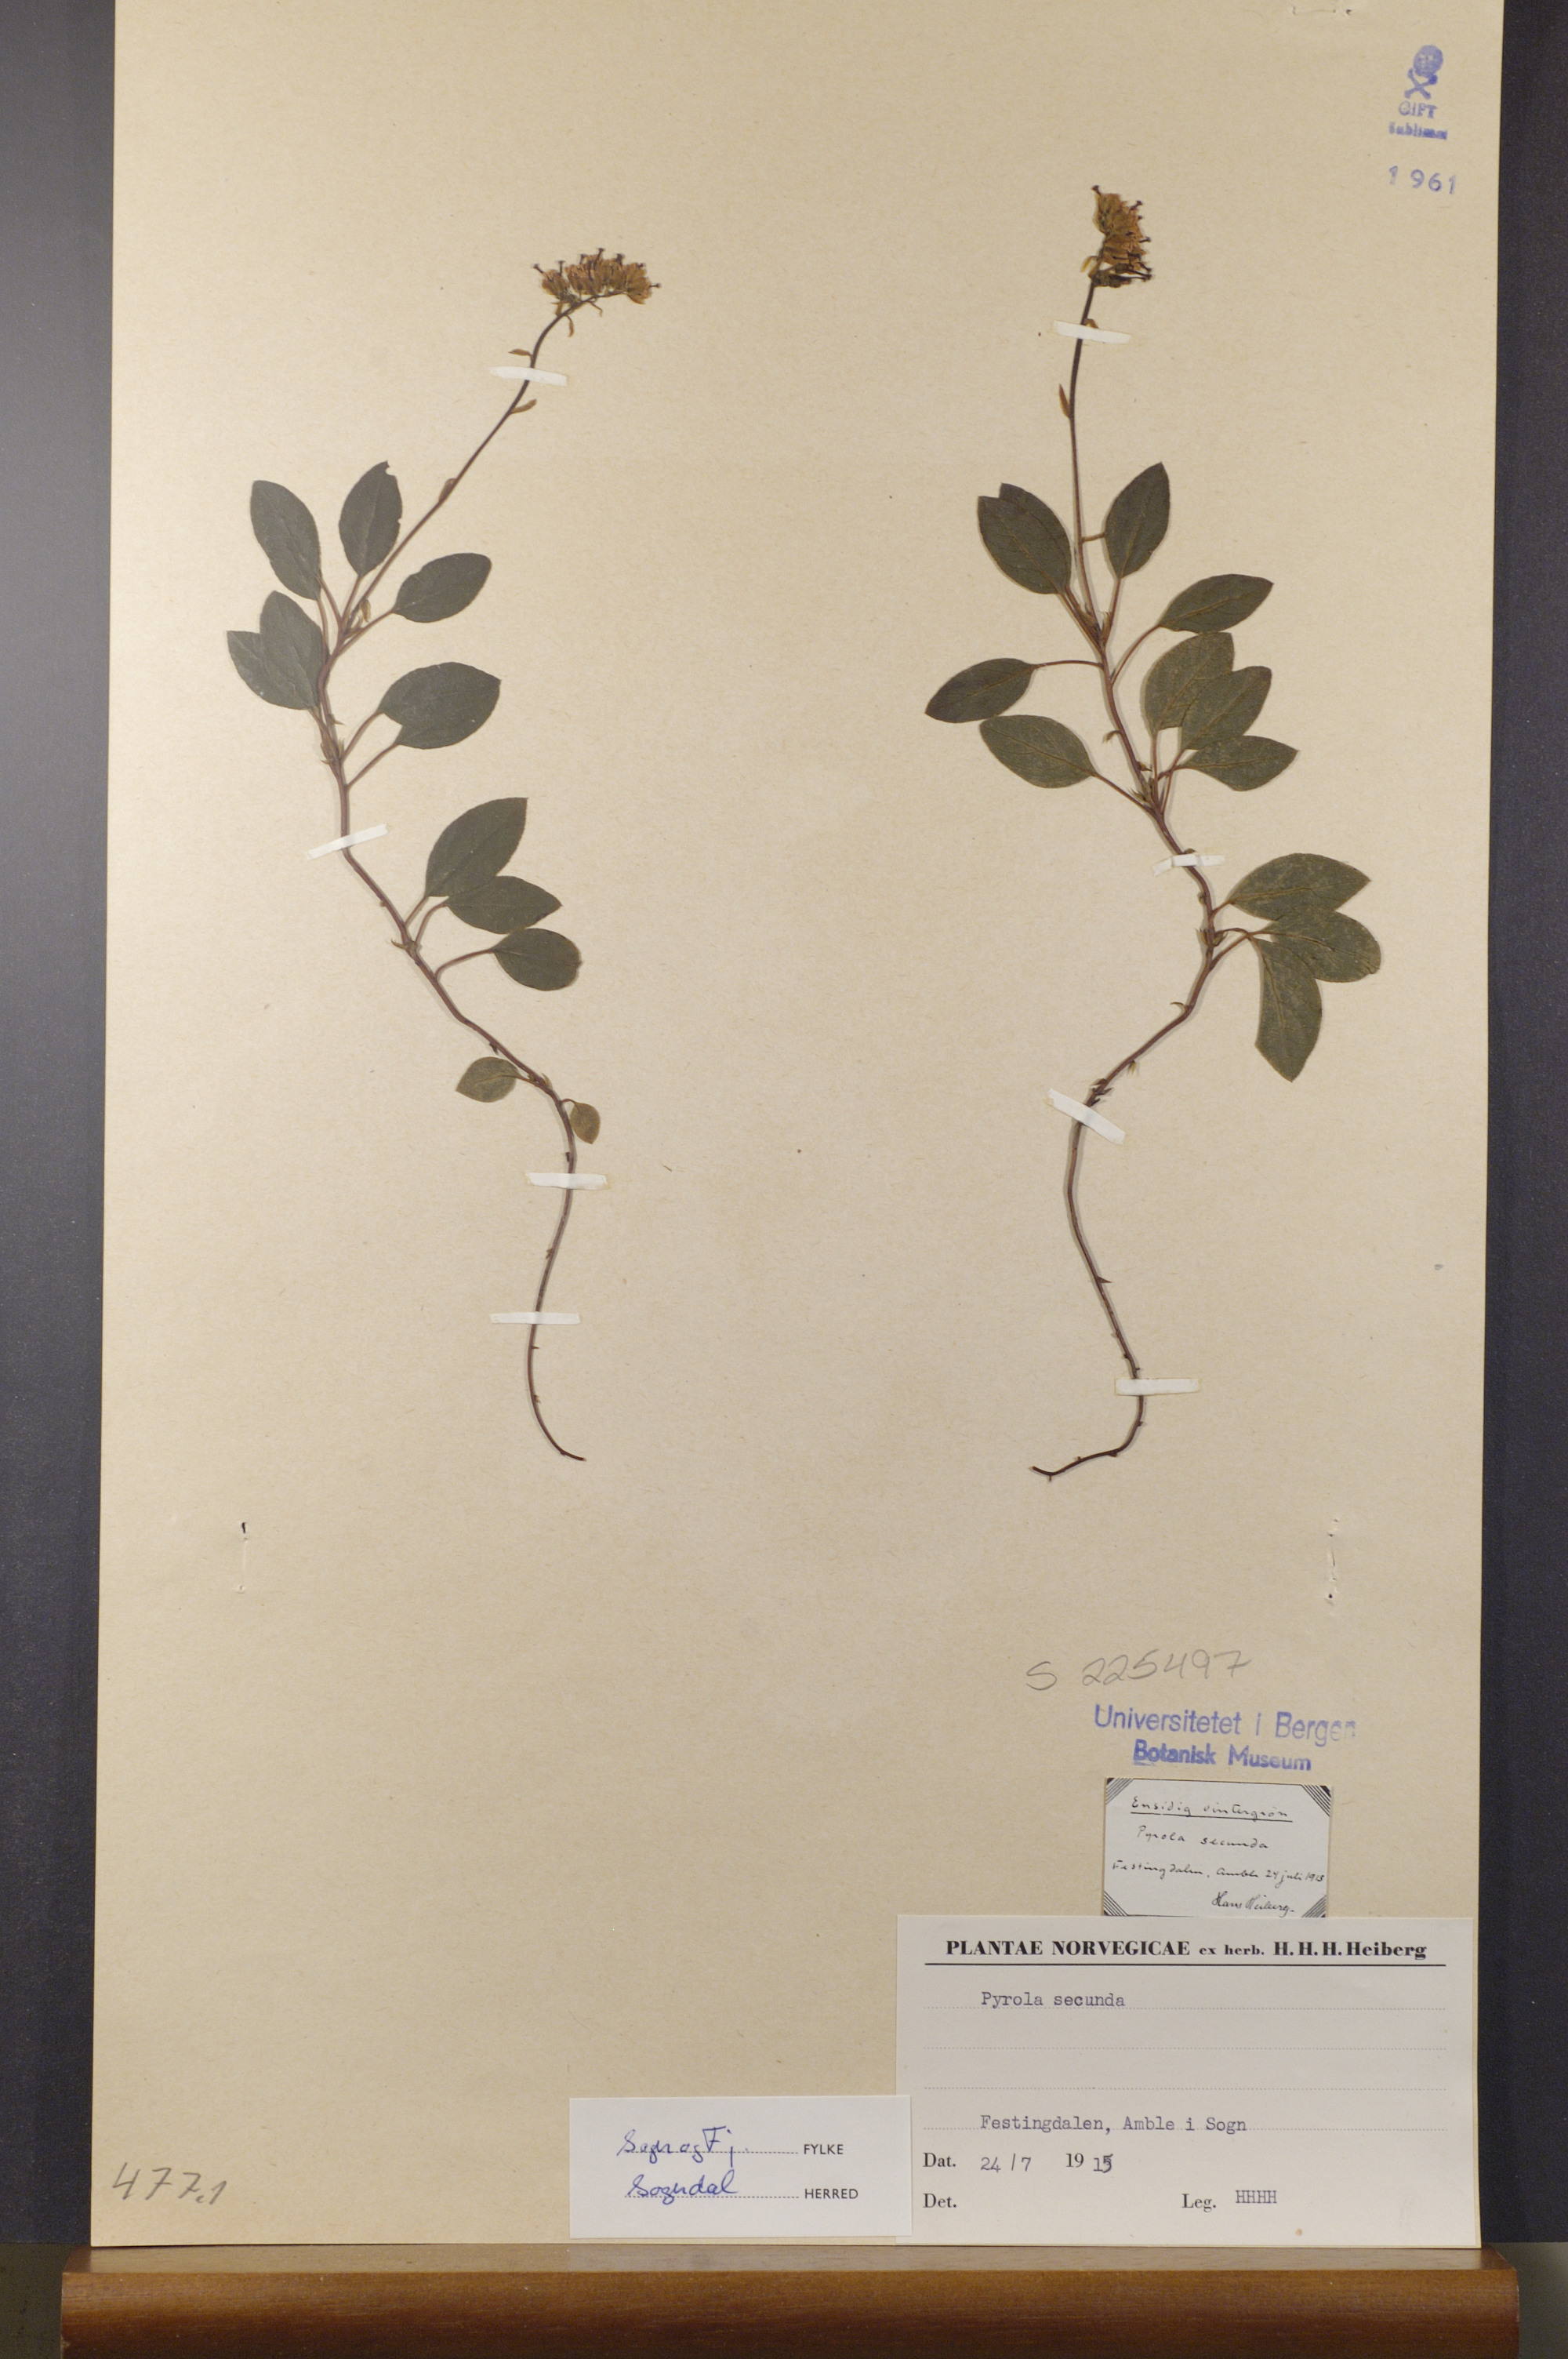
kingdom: Plantae
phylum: Tracheophyta
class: Magnoliopsida
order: Ericales
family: Ericaceae
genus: Orthilia
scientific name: Orthilia secunda
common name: One-sided orthilia
